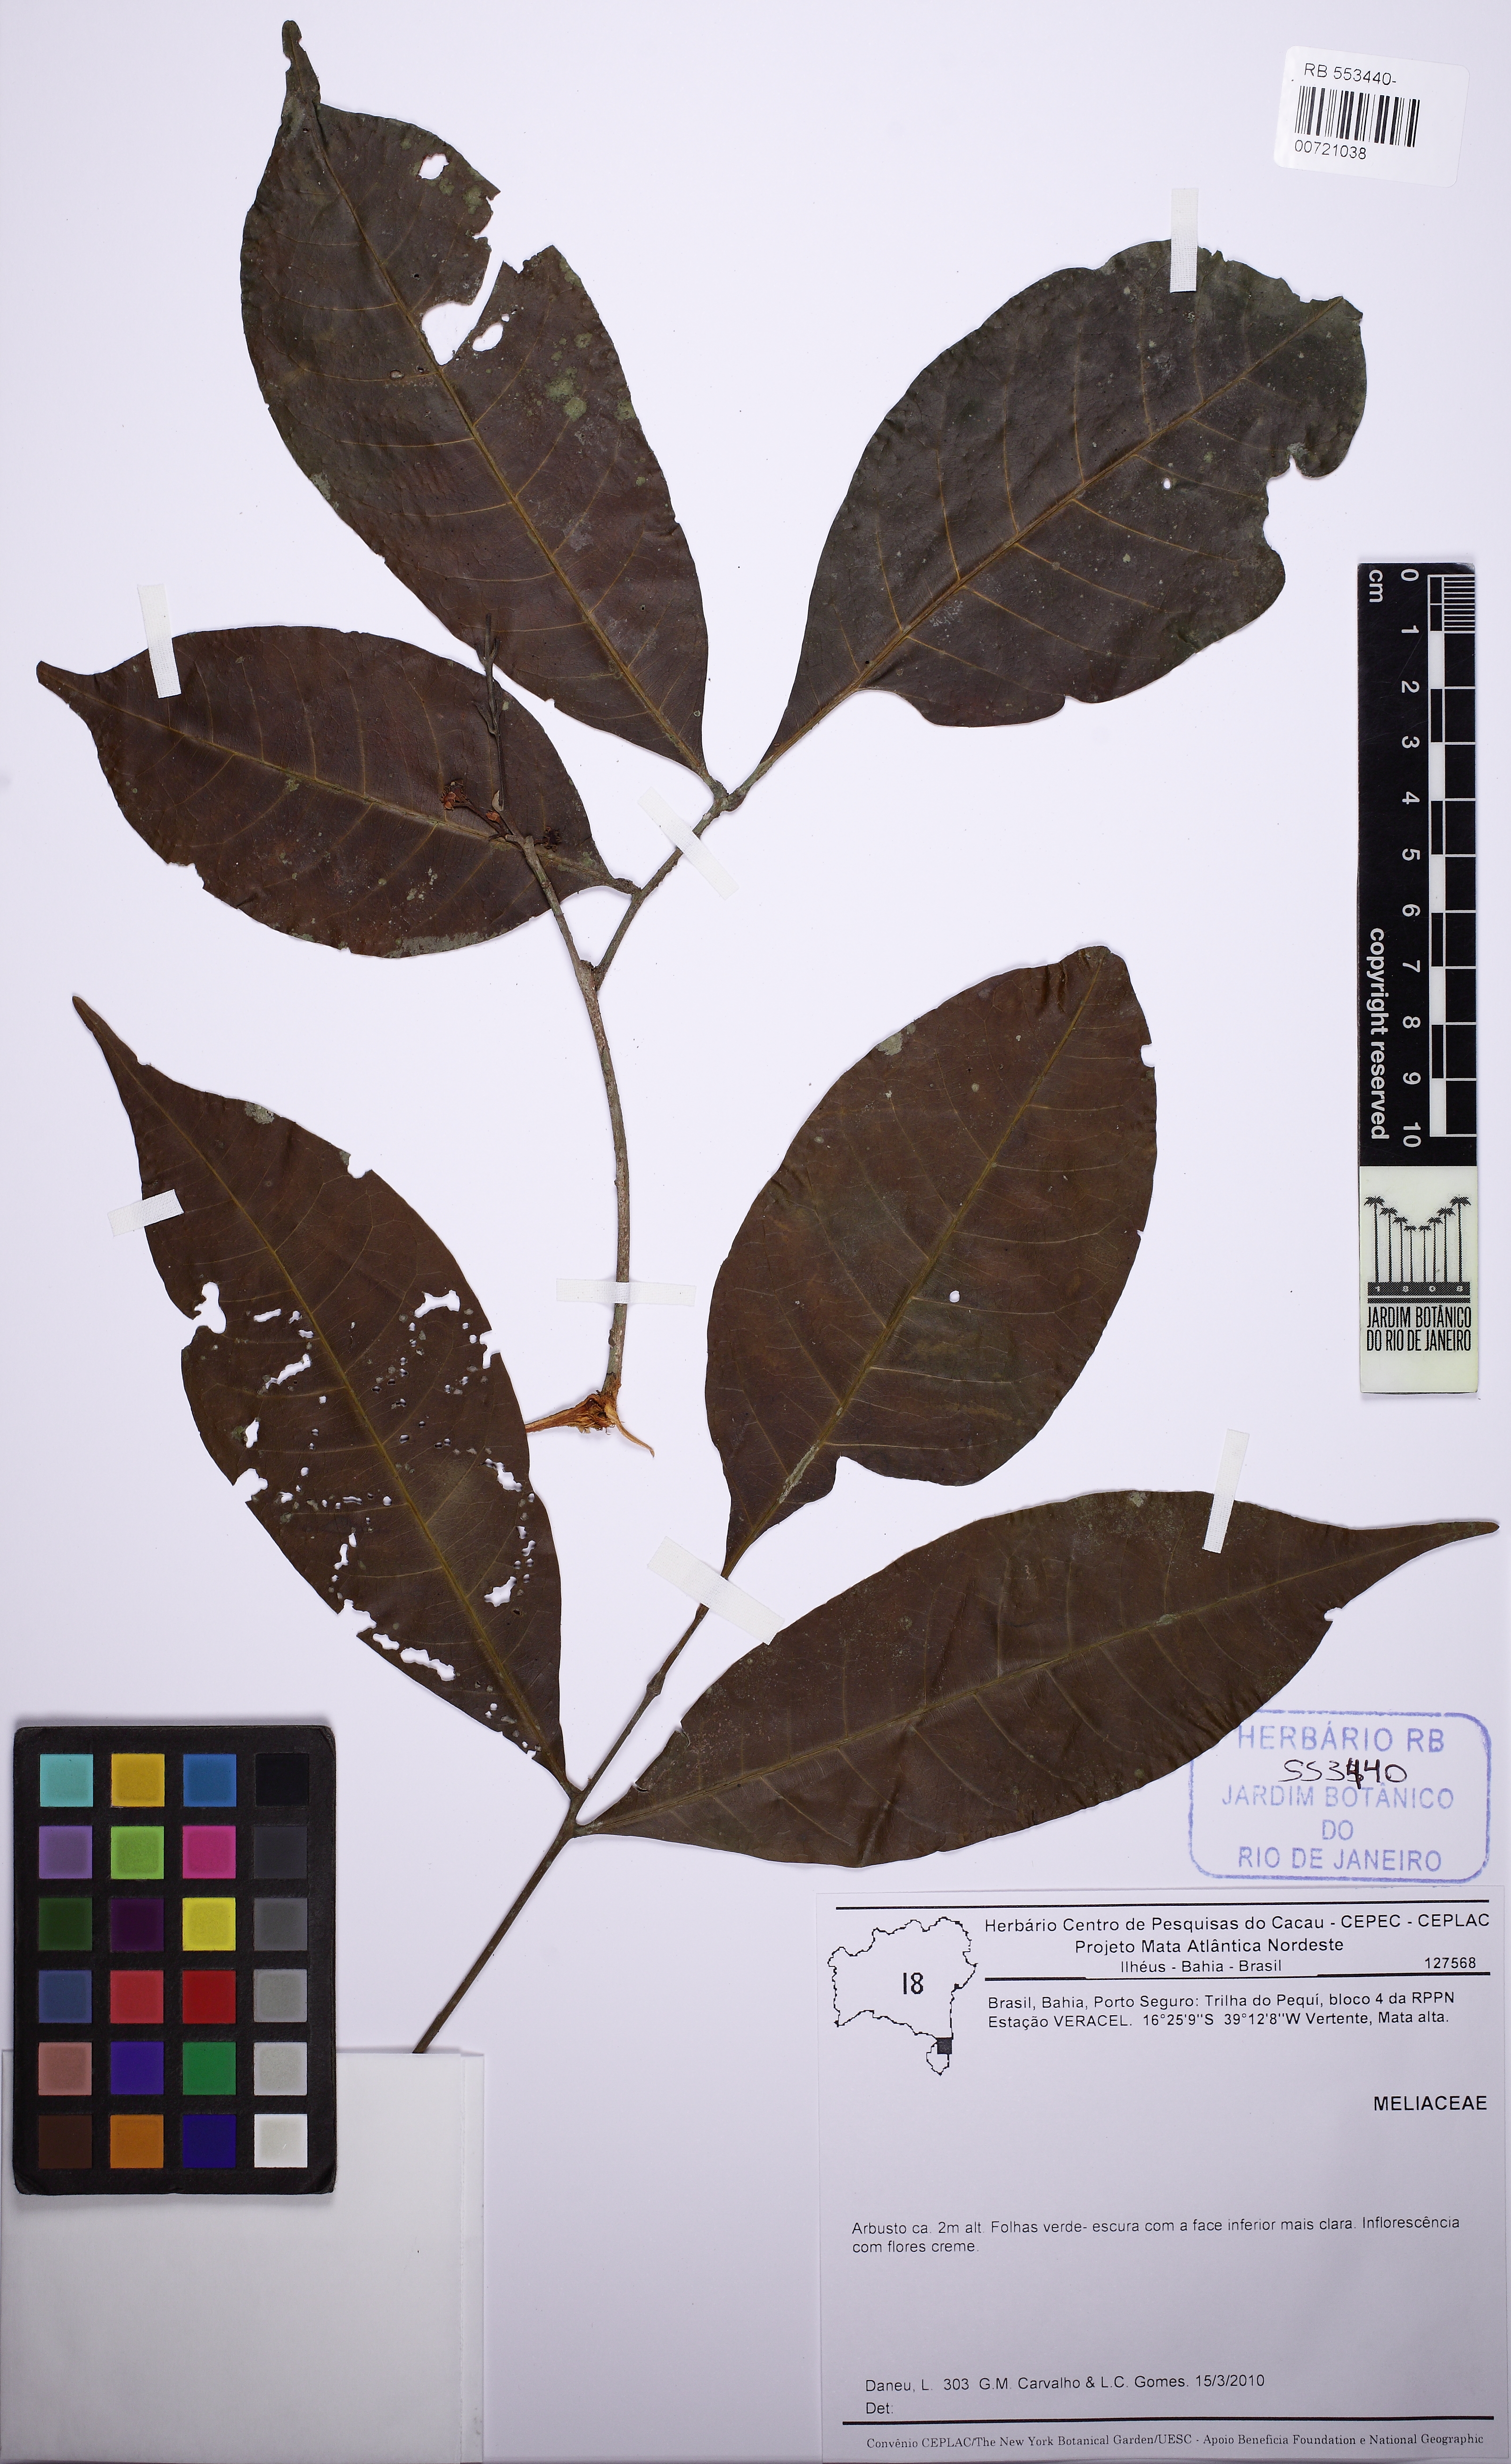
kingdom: Plantae
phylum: Tracheophyta
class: Magnoliopsida
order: Sapindales
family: Meliaceae
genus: Trichilia
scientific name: Trichilia
